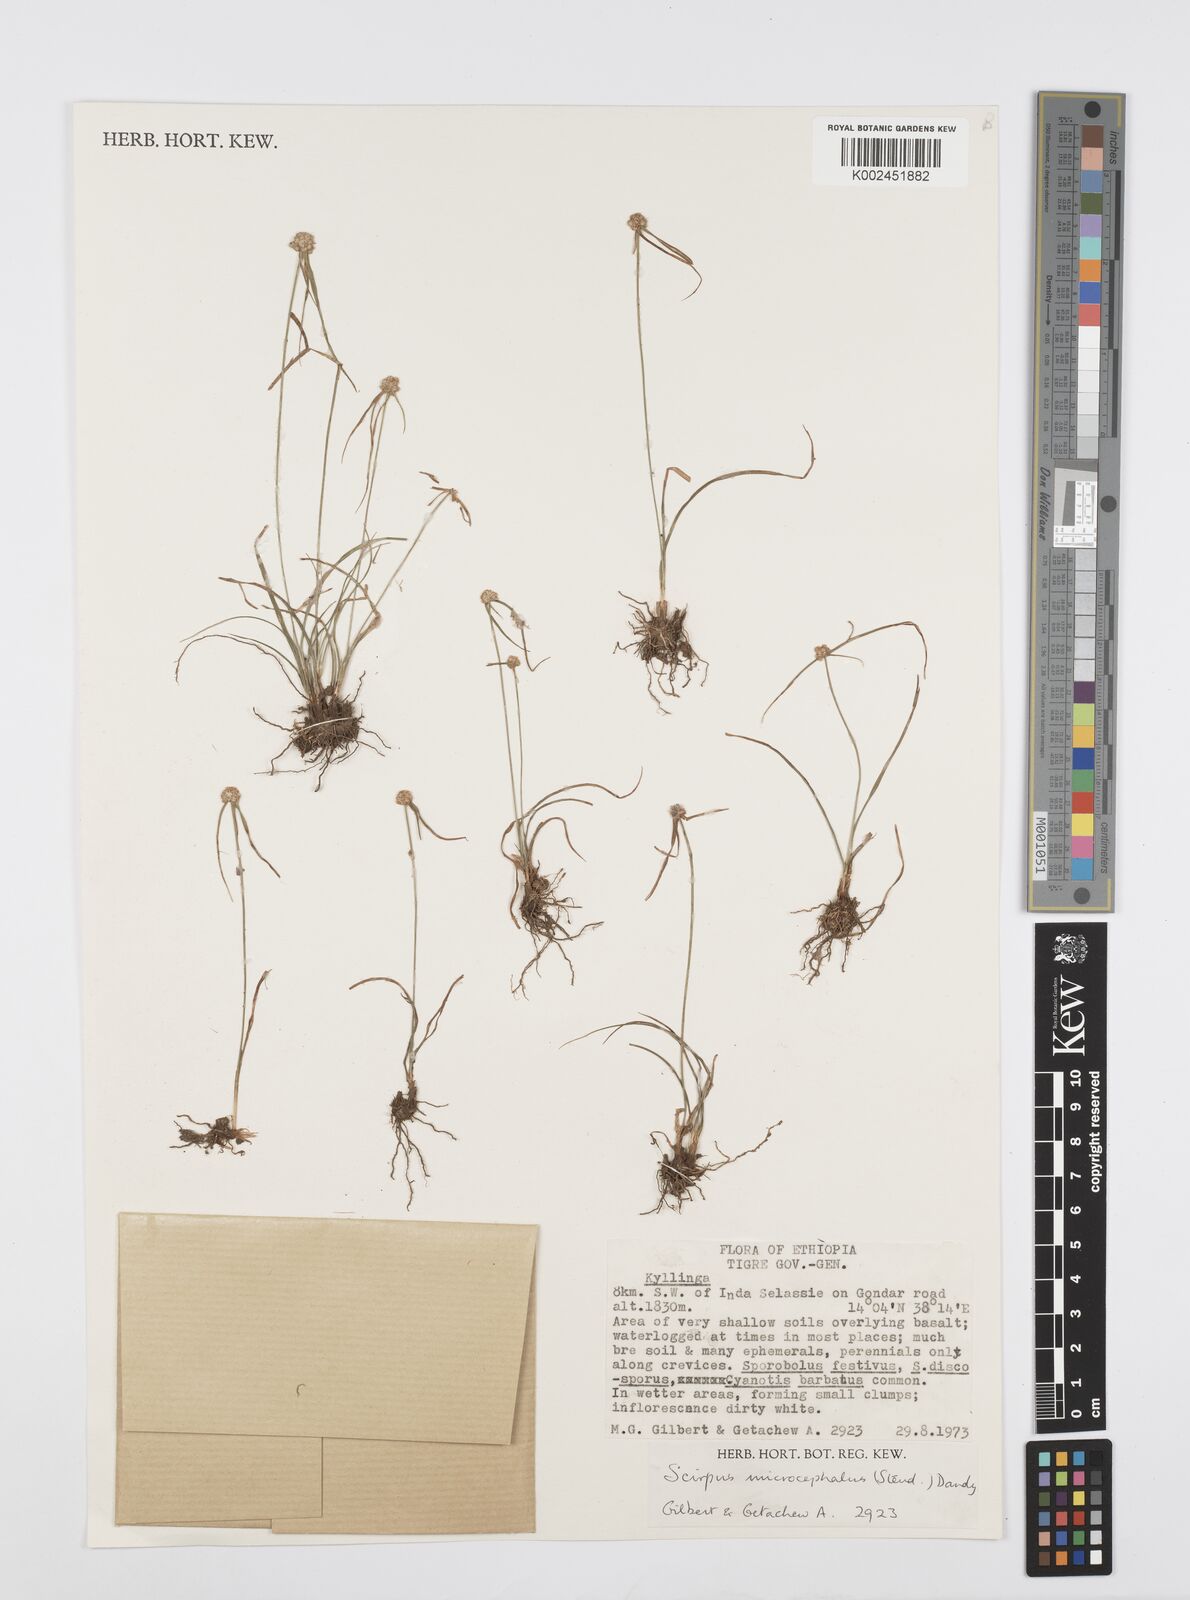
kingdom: Plantae
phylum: Tracheophyta
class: Liliopsida
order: Poales
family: Cyperaceae
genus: Cyperus
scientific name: Cyperus microcephalus
